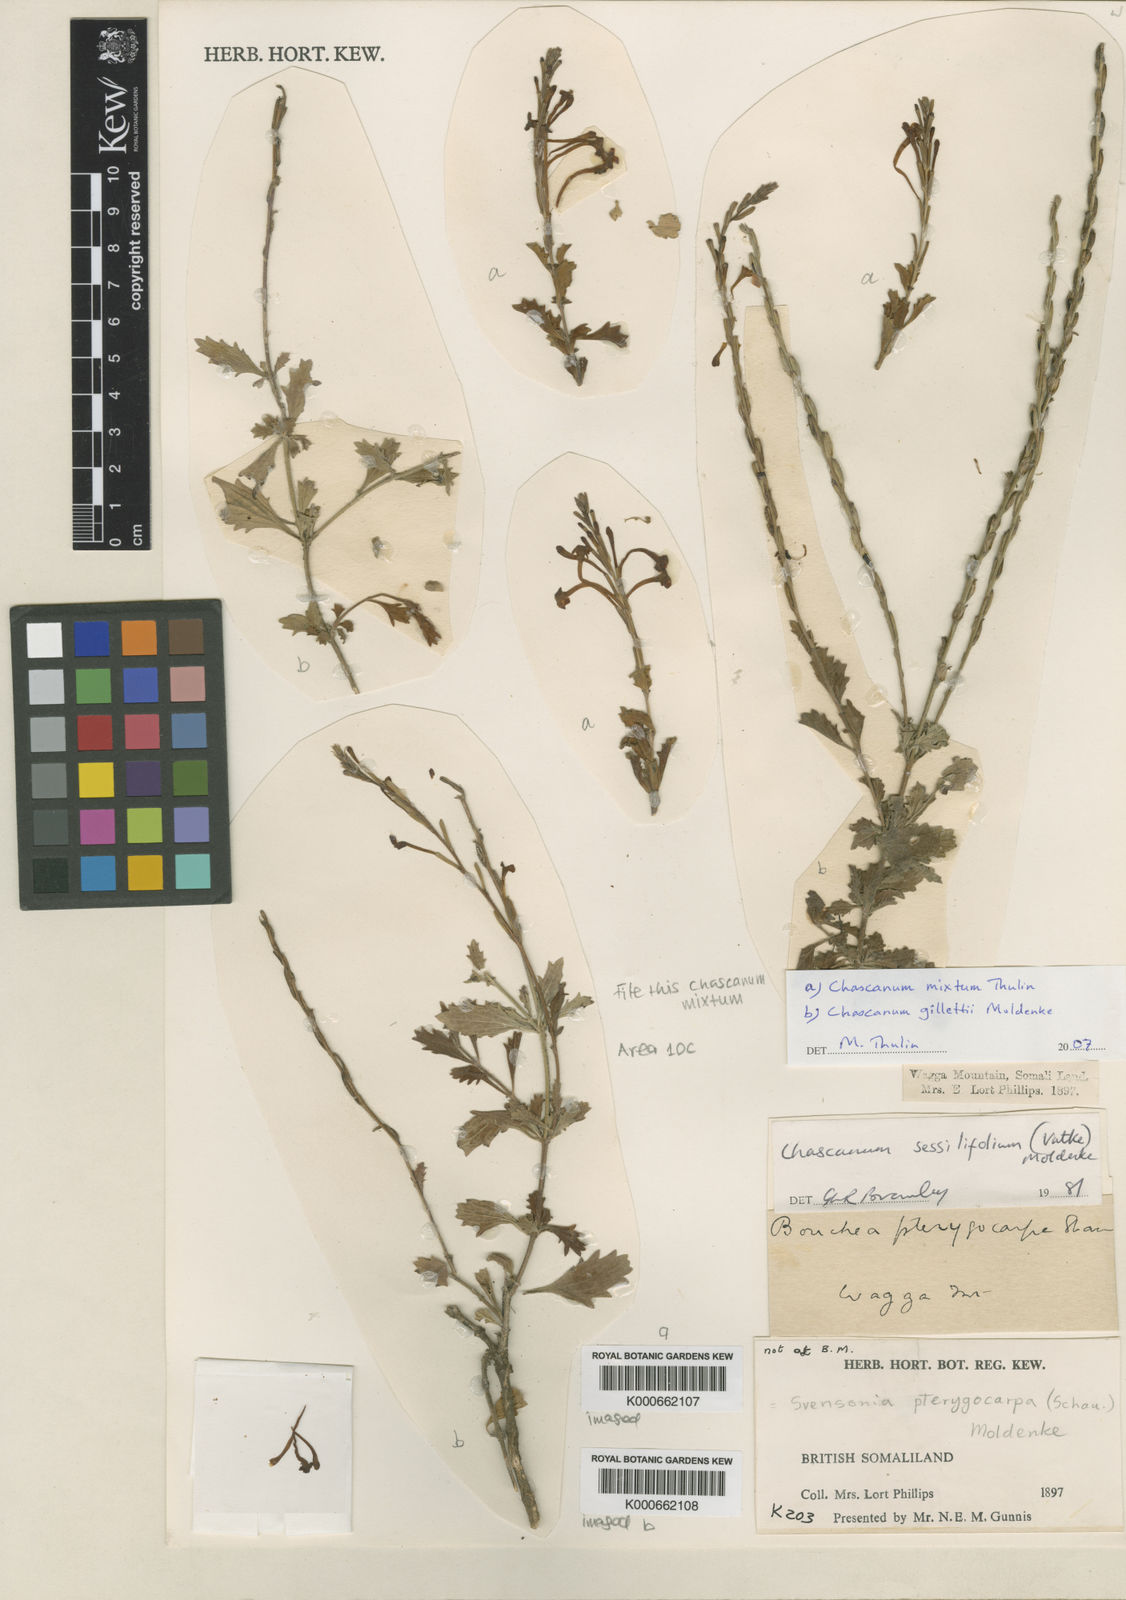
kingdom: Plantae
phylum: Tracheophyta
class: Magnoliopsida
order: Lamiales
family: Verbenaceae
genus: Chascanum
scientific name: Chascanum mixtum
